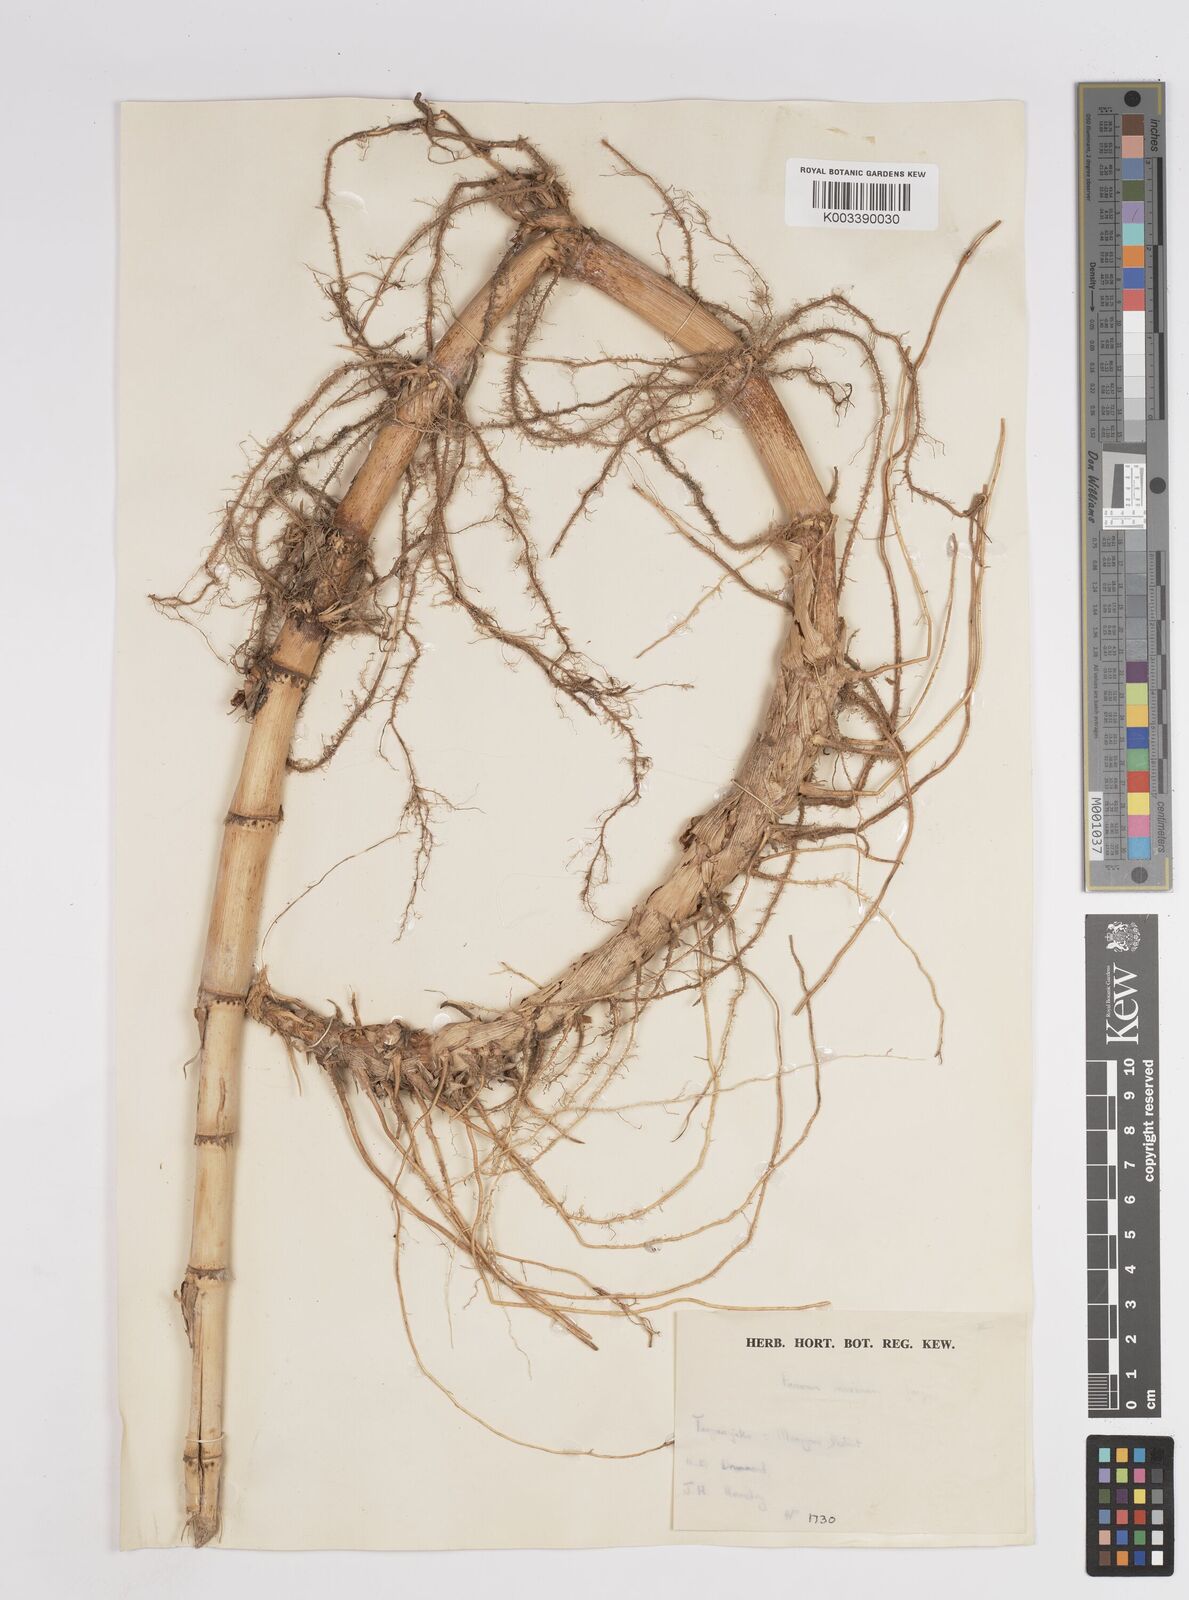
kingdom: Plantae
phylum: Tracheophyta
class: Liliopsida
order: Poales
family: Poaceae
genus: Megathyrsus
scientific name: Megathyrsus maximus
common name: Guineagrass
